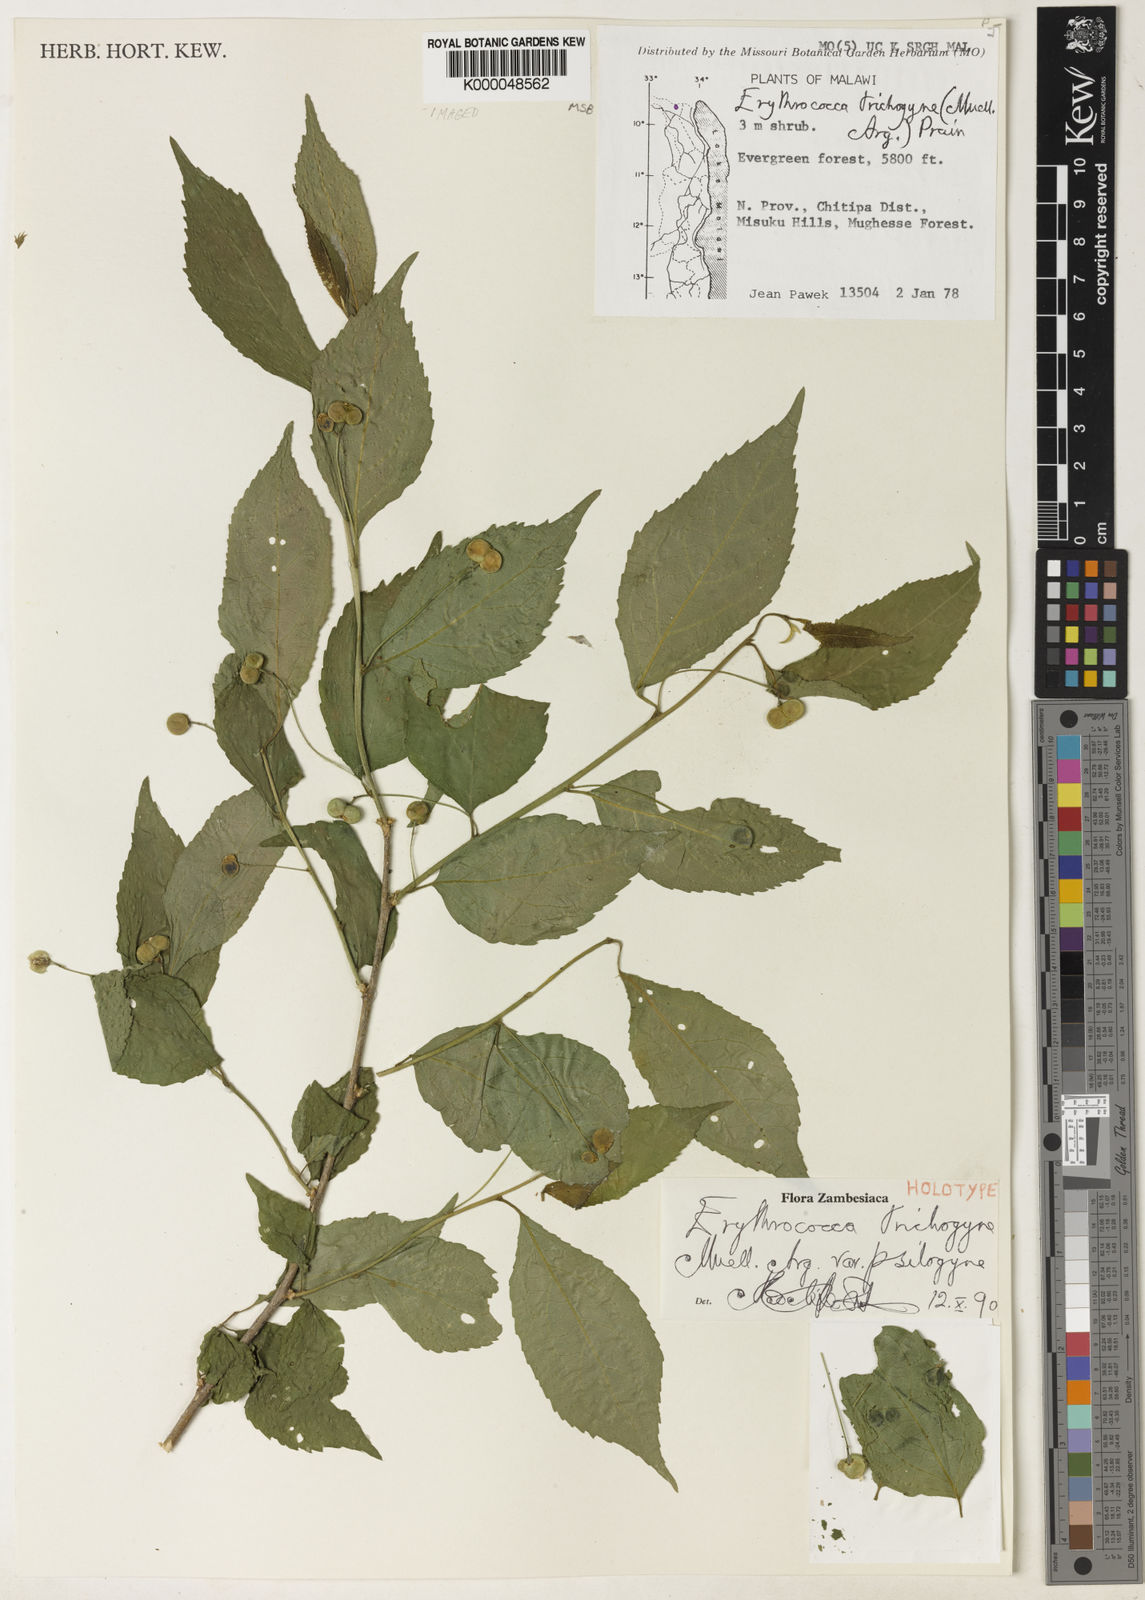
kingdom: Plantae
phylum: Tracheophyta
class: Magnoliopsida
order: Malpighiales
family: Euphorbiaceae
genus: Erythrococca
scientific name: Erythrococca trichogyne
